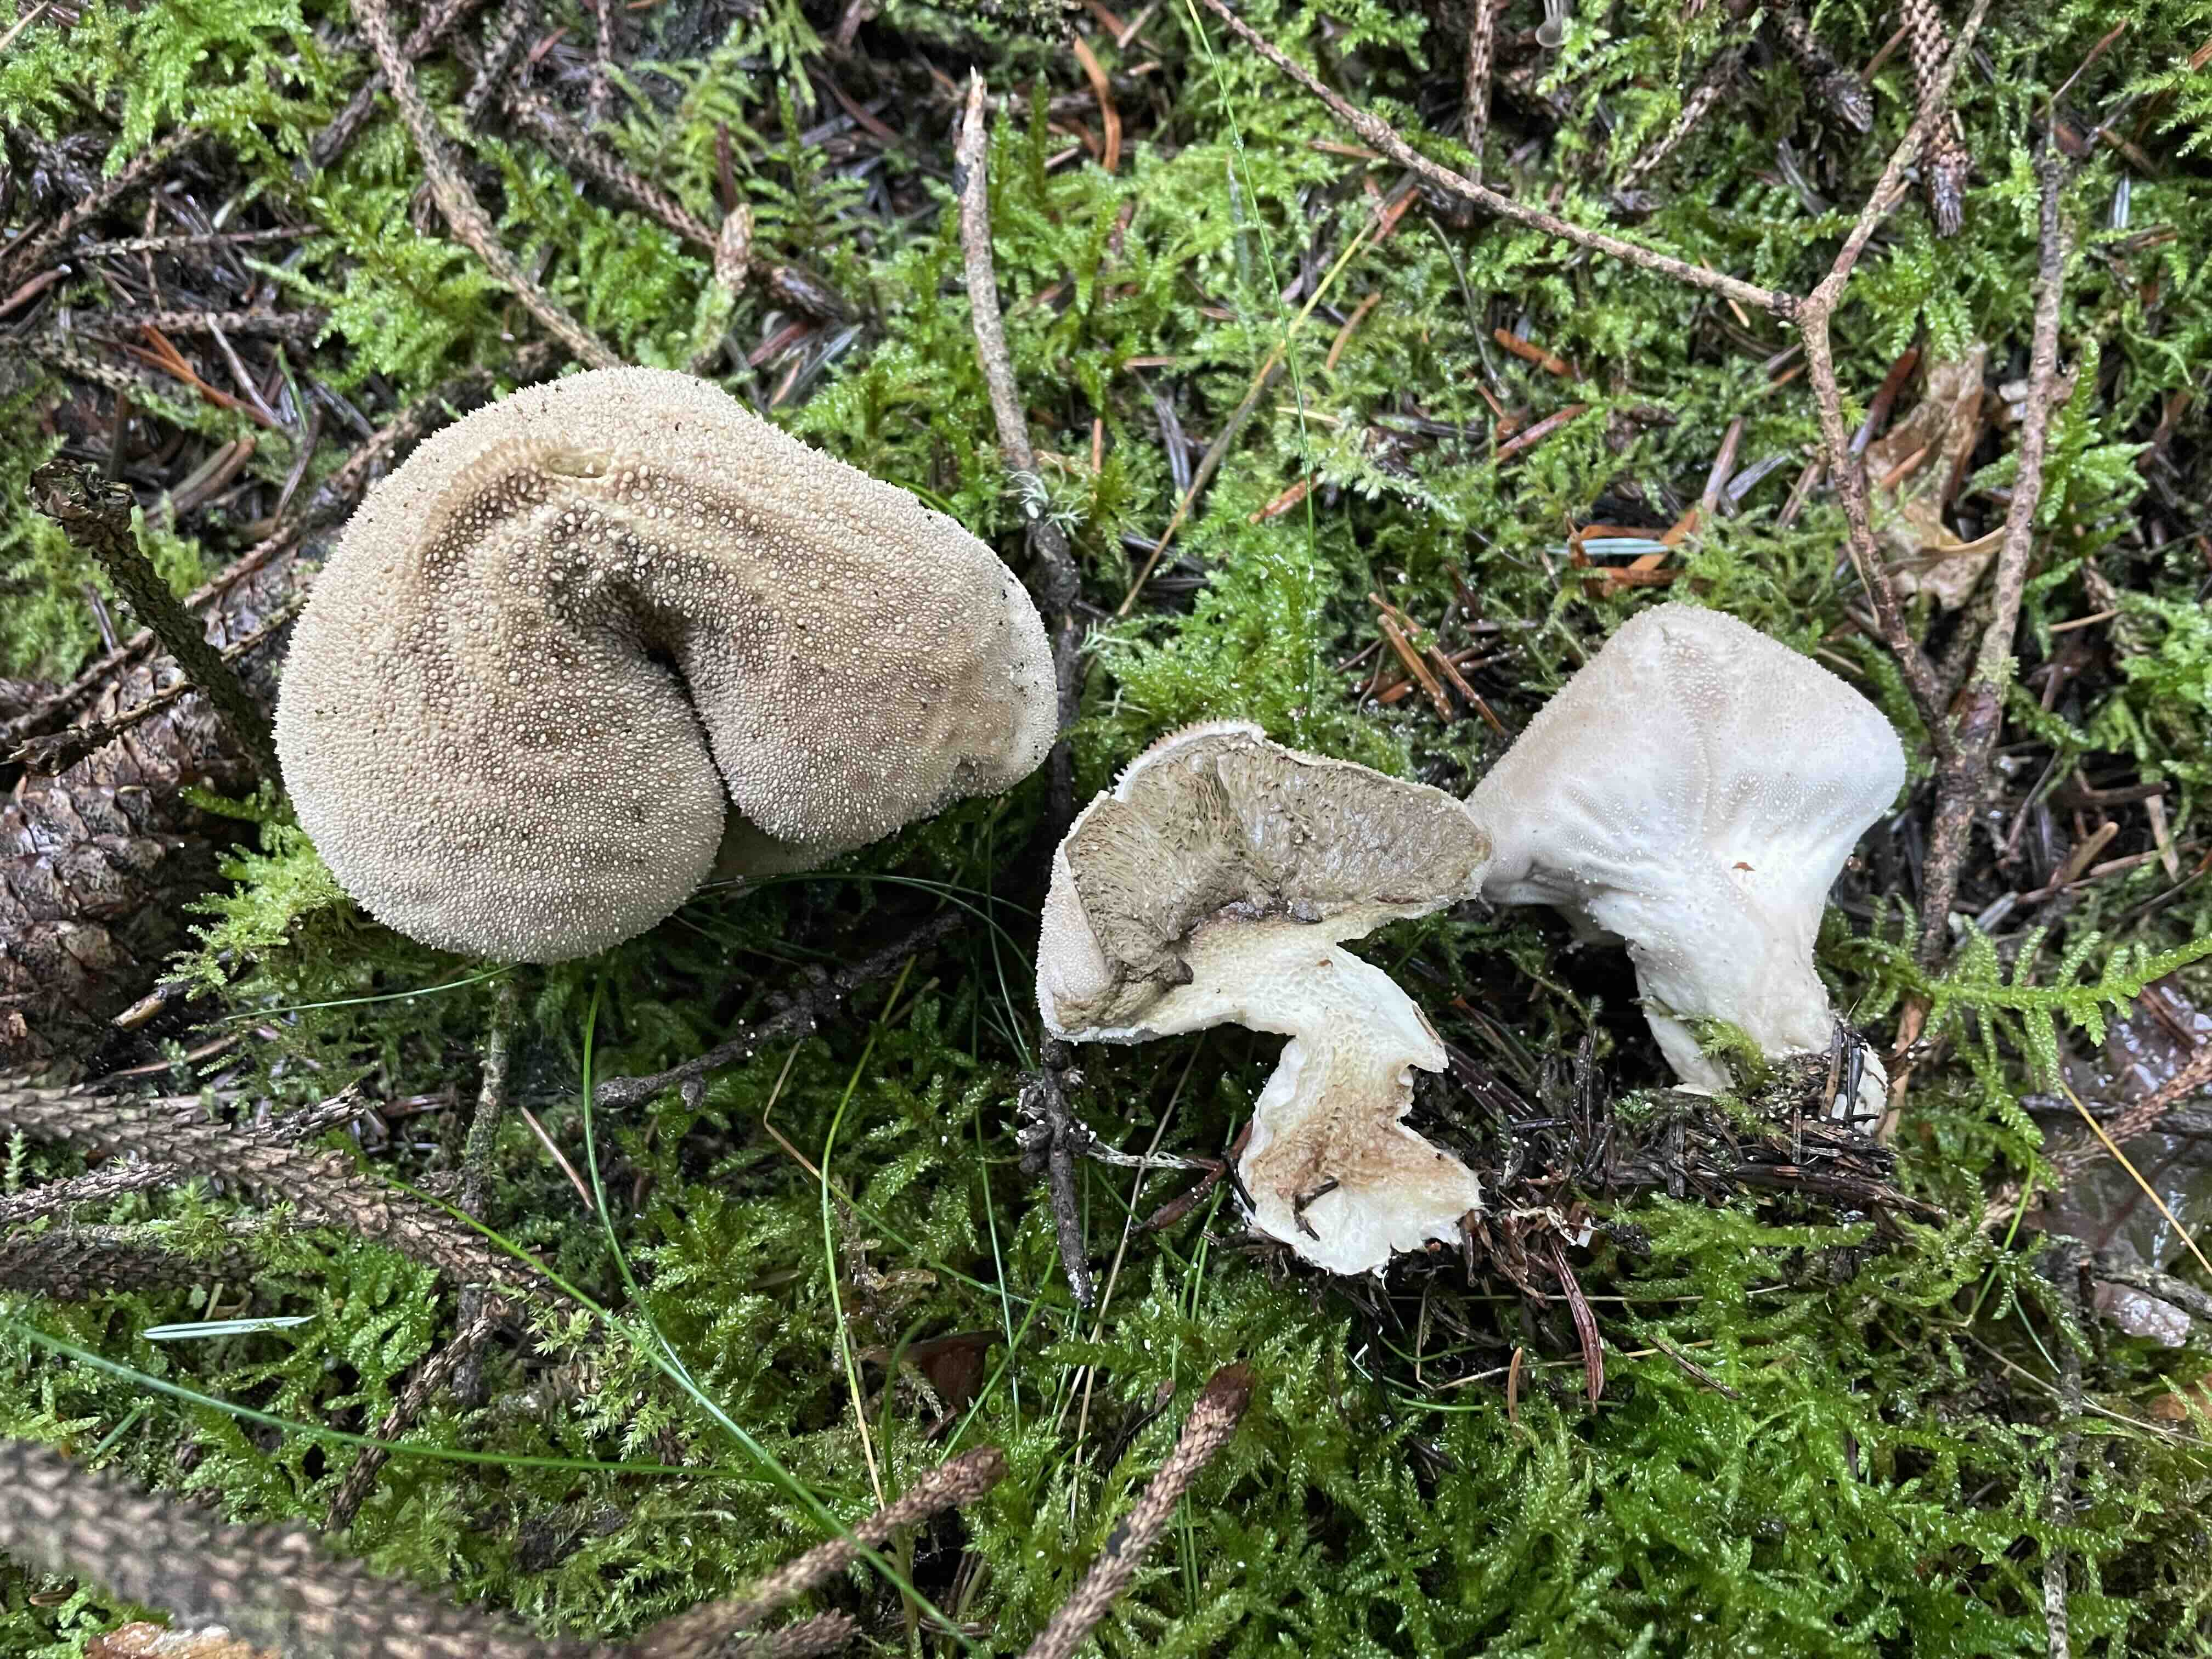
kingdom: Fungi
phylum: Basidiomycota
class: Agaricomycetes
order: Agaricales
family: Lycoperdaceae
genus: Lycoperdon
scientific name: Lycoperdon perlatum
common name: krystal-støvbold
